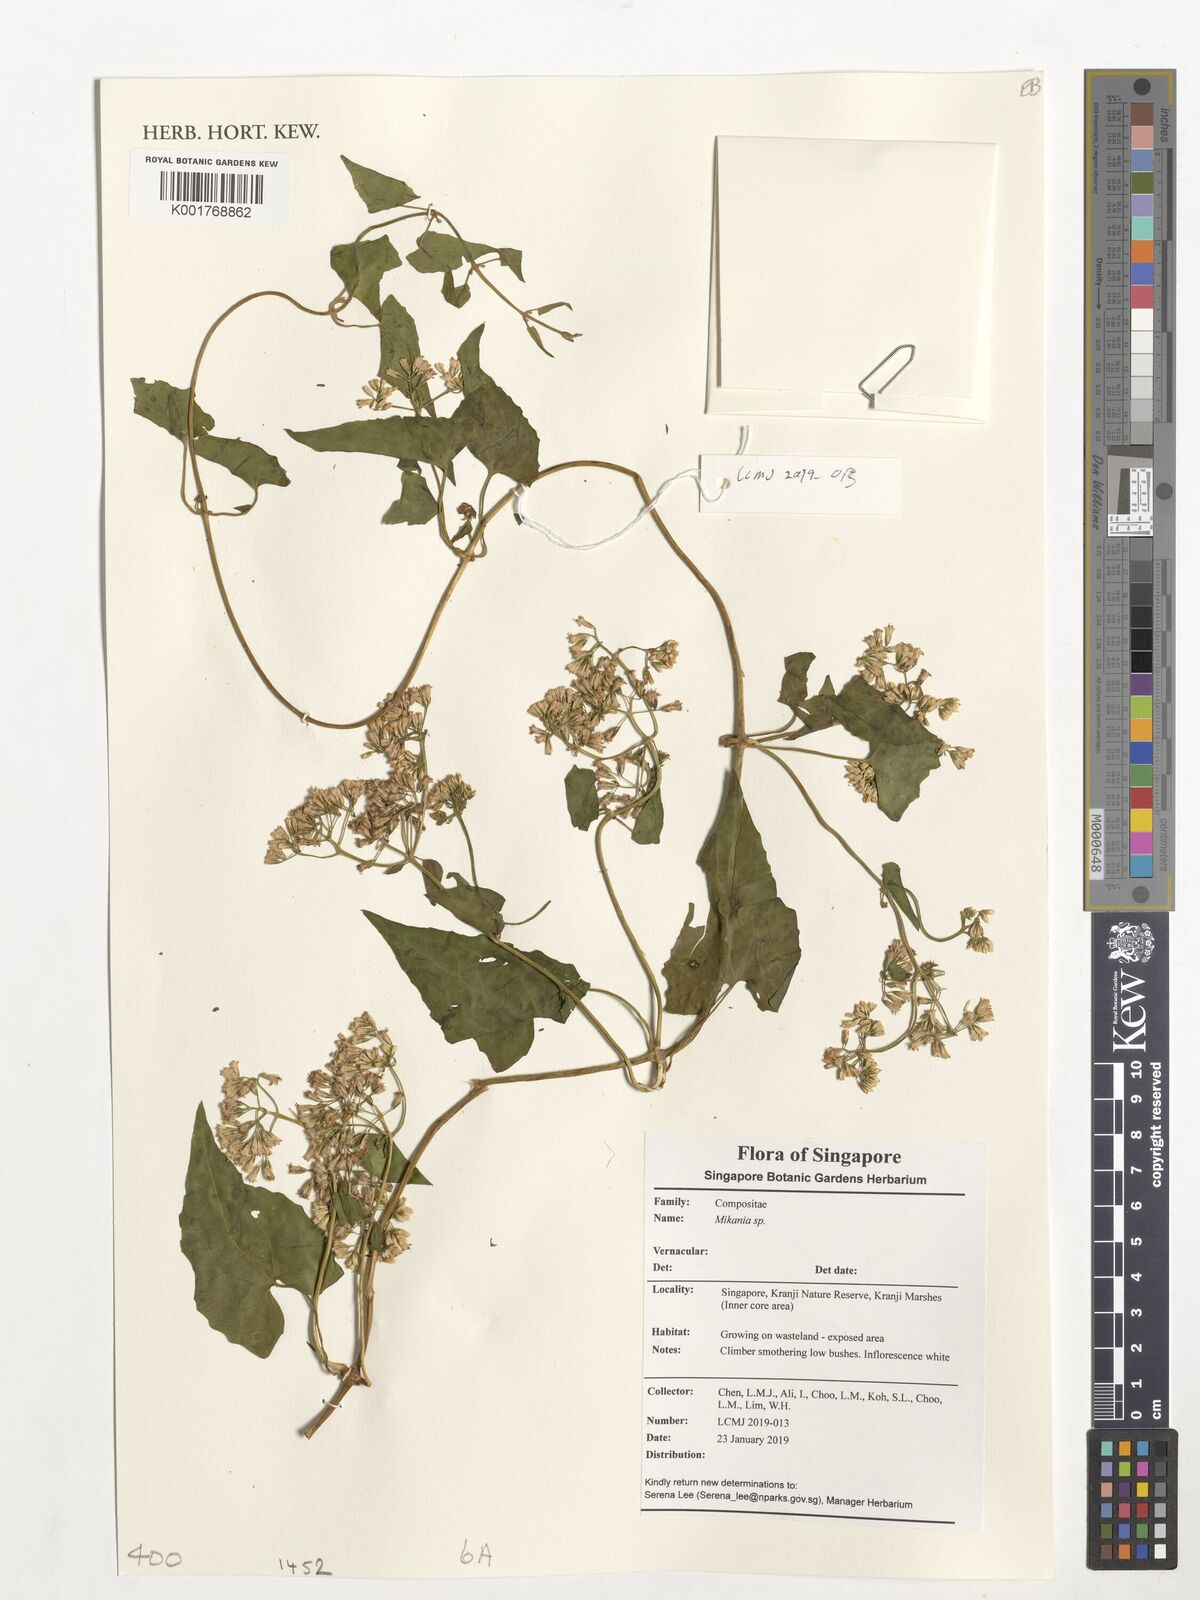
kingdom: Plantae
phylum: Tracheophyta
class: Magnoliopsida
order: Asterales
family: Asteraceae
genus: Mikania
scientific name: Mikania
